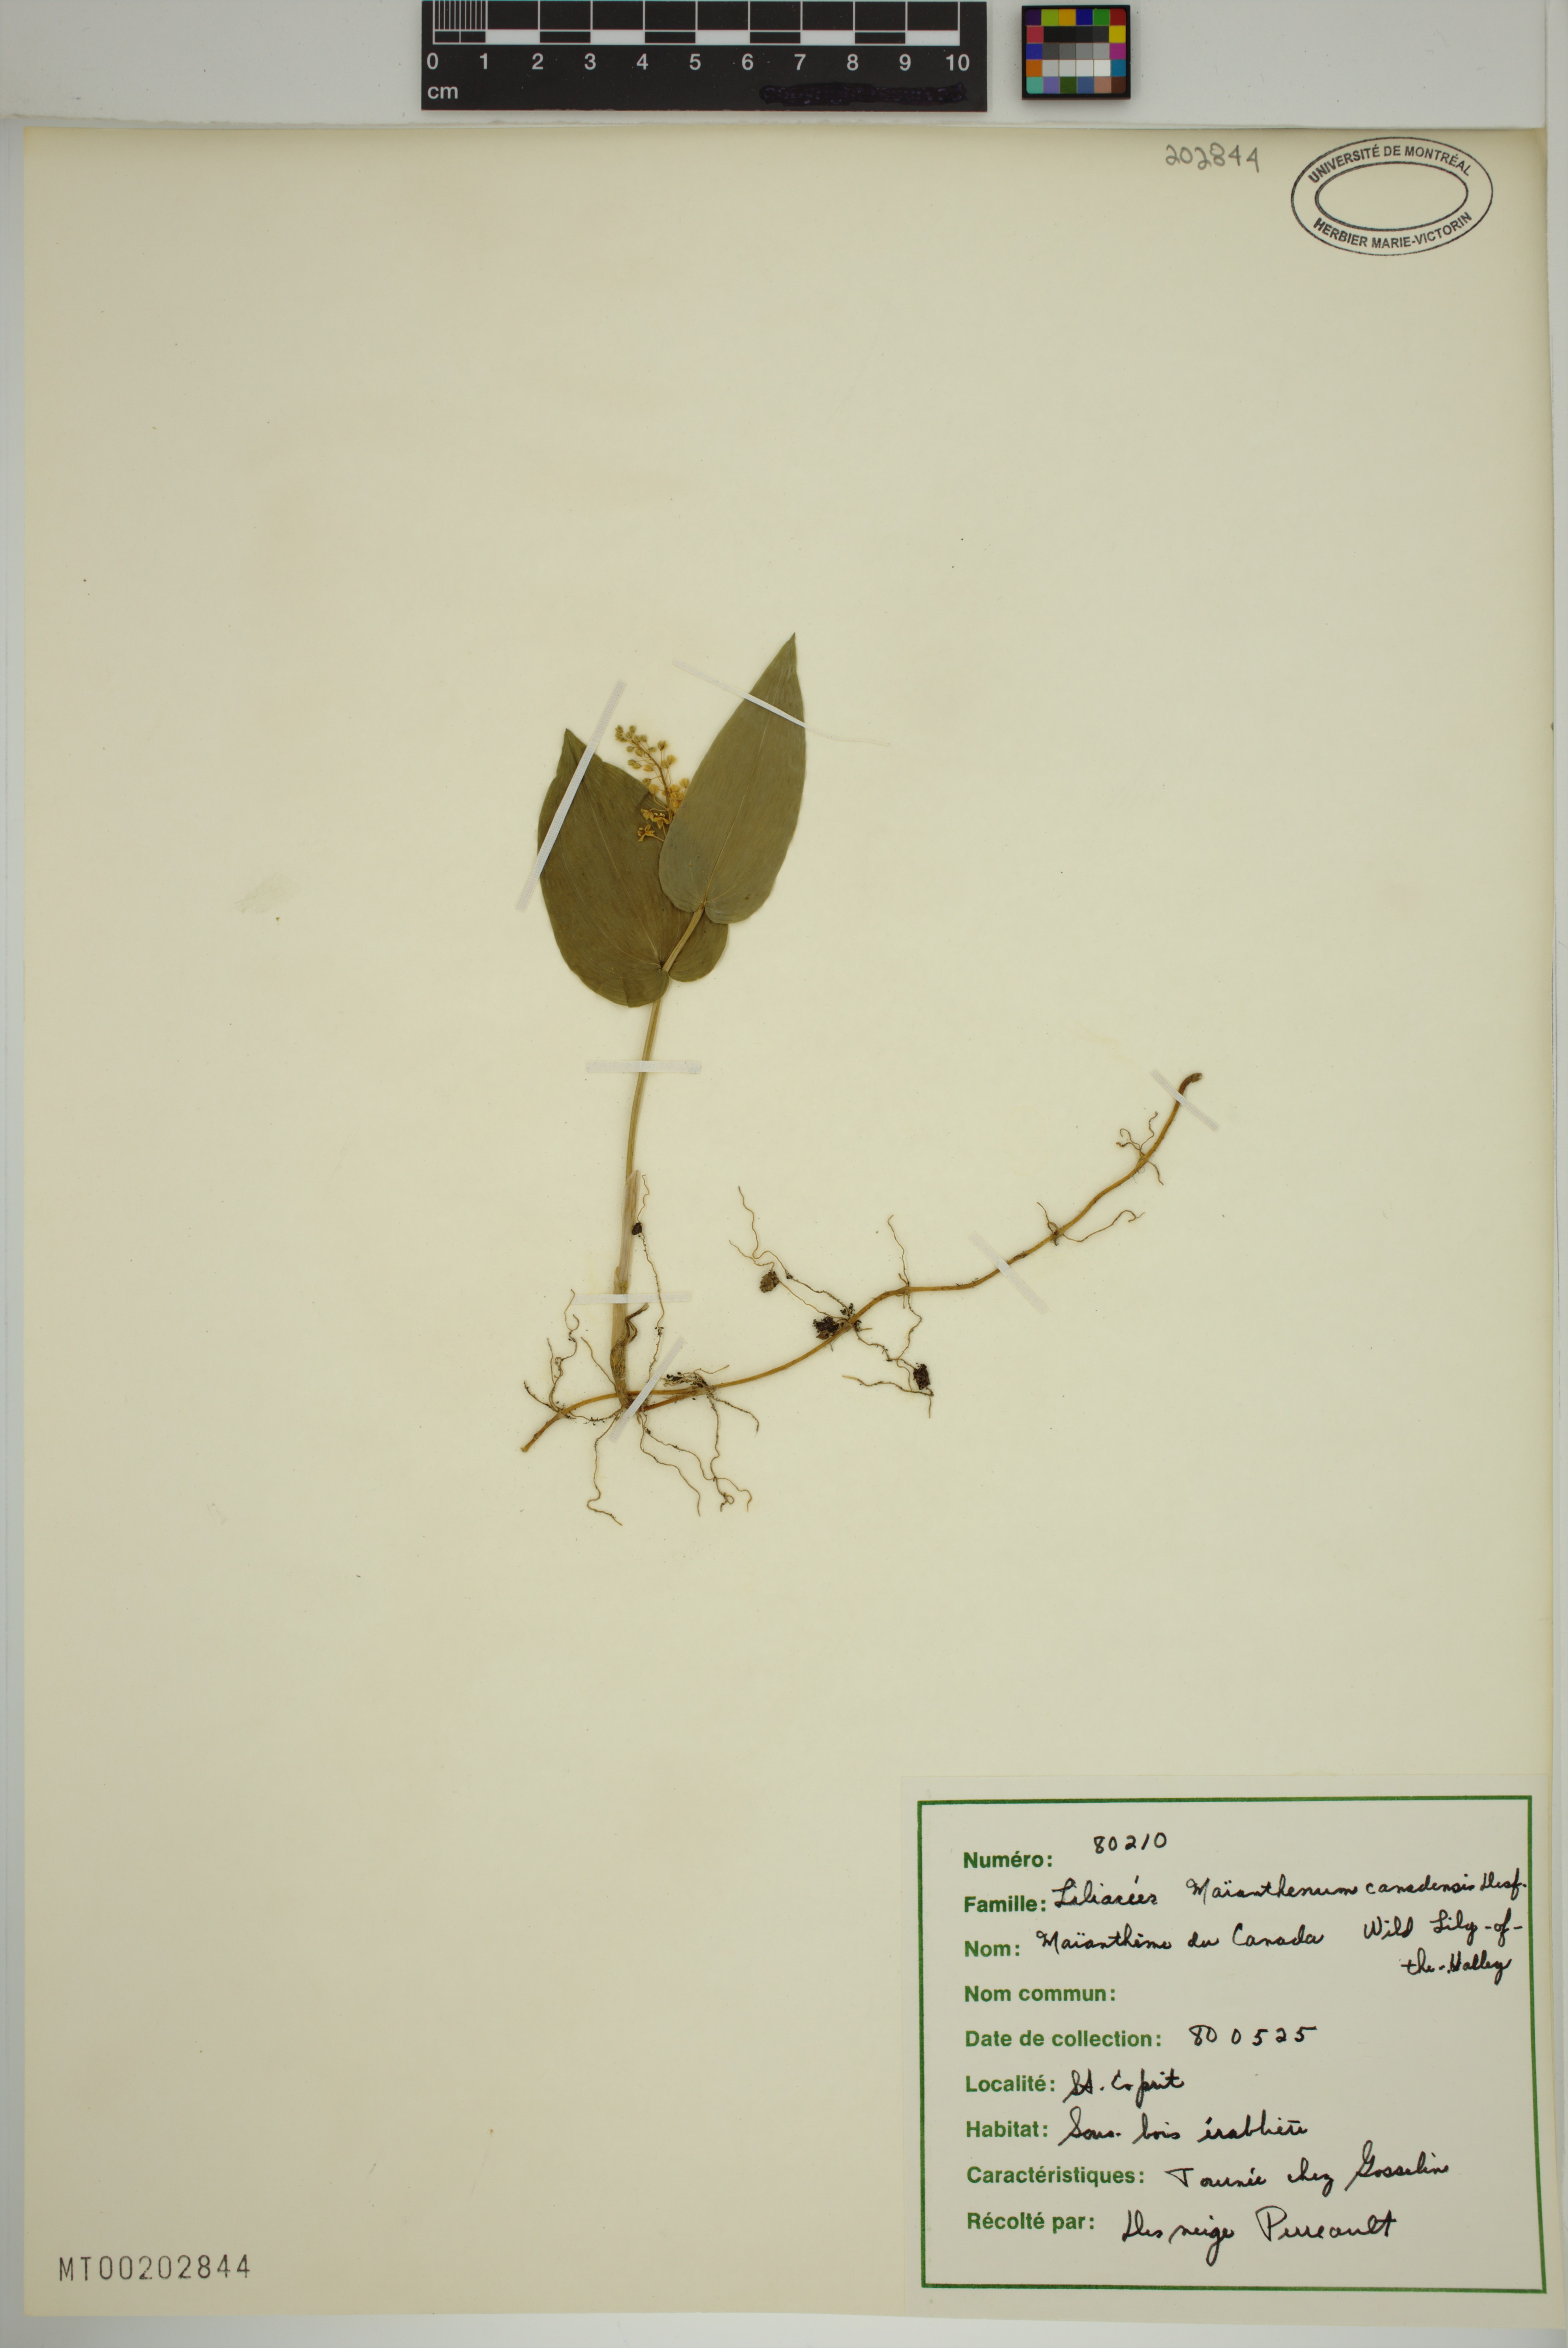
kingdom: Plantae
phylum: Tracheophyta
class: Liliopsida
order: Asparagales
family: Asparagaceae
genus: Maianthemum
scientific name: Maianthemum canadense
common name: False lily-of-the-valley
